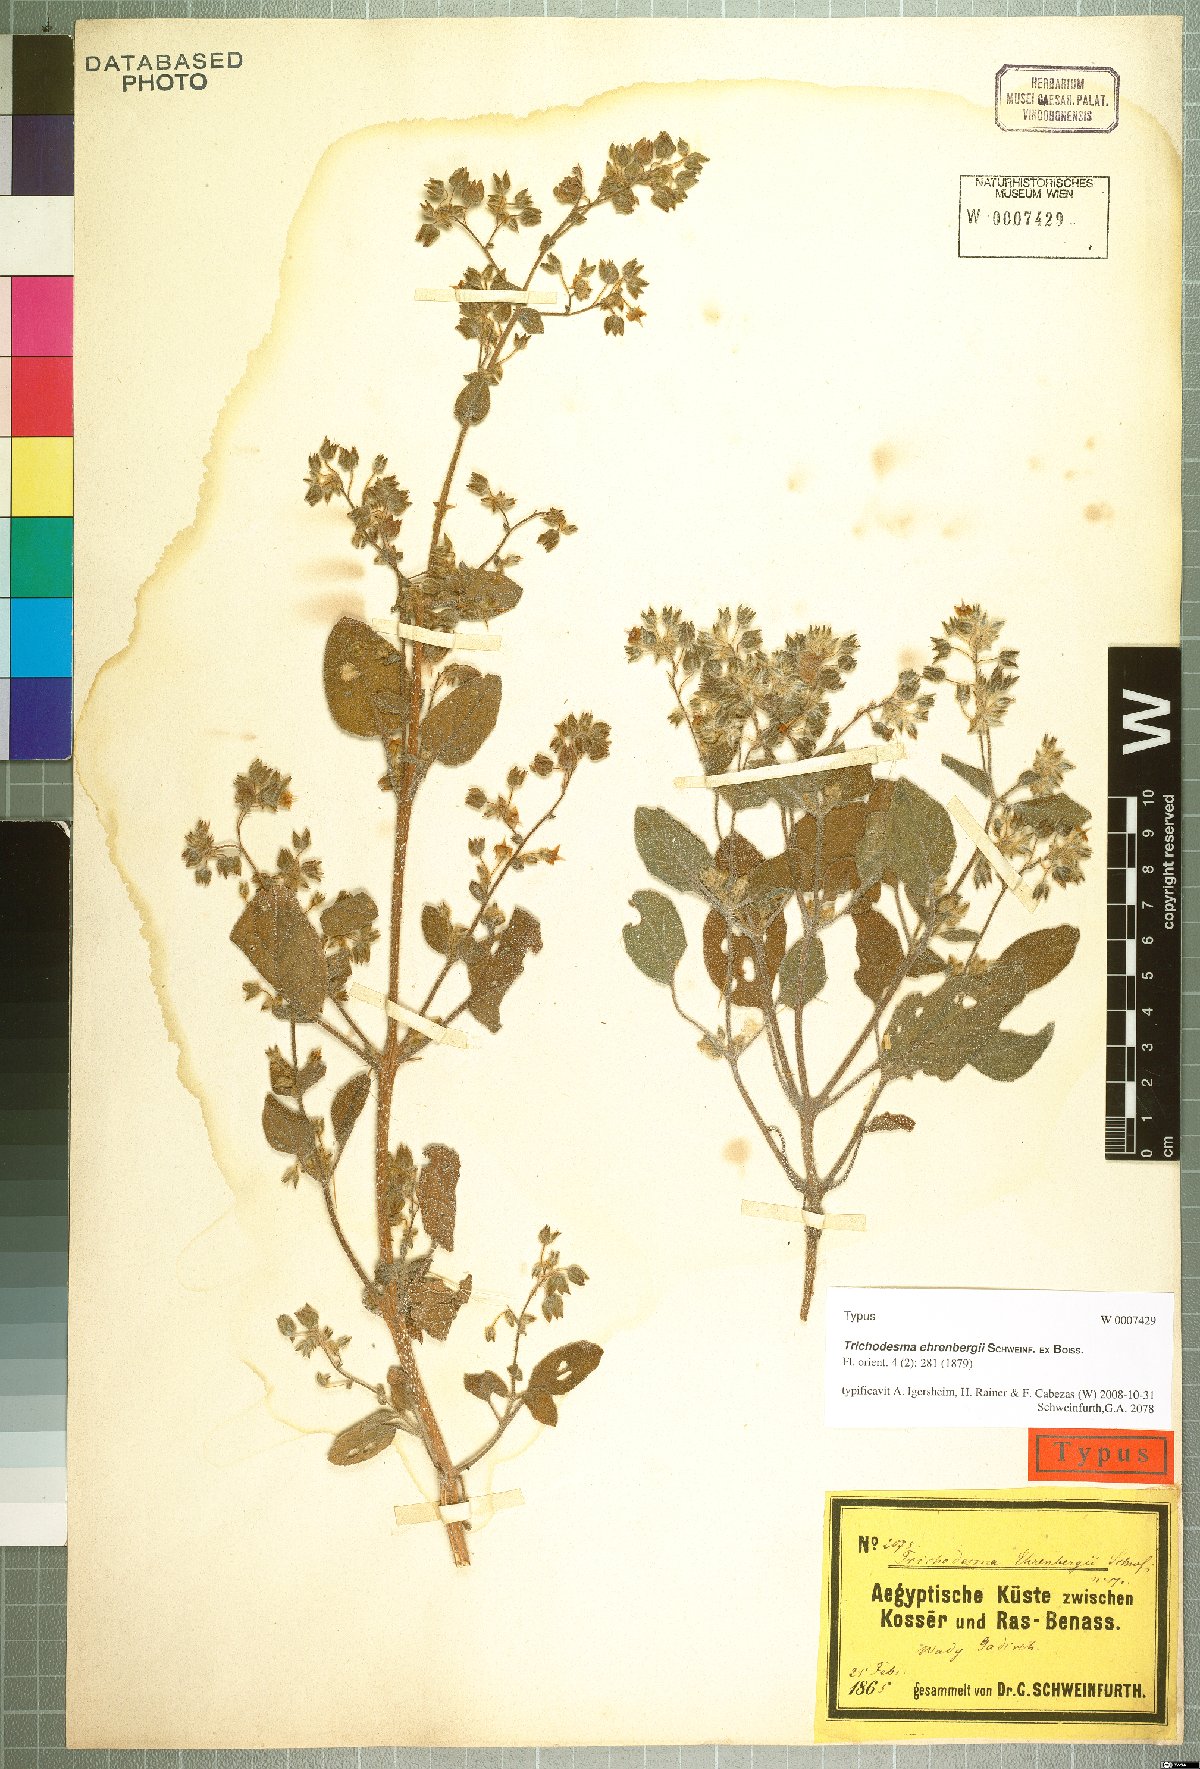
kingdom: Plantae
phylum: Tracheophyta
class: Magnoliopsida
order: Boraginales
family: Boraginaceae
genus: Trichodesma
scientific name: Trichodesma ehrenbergii
